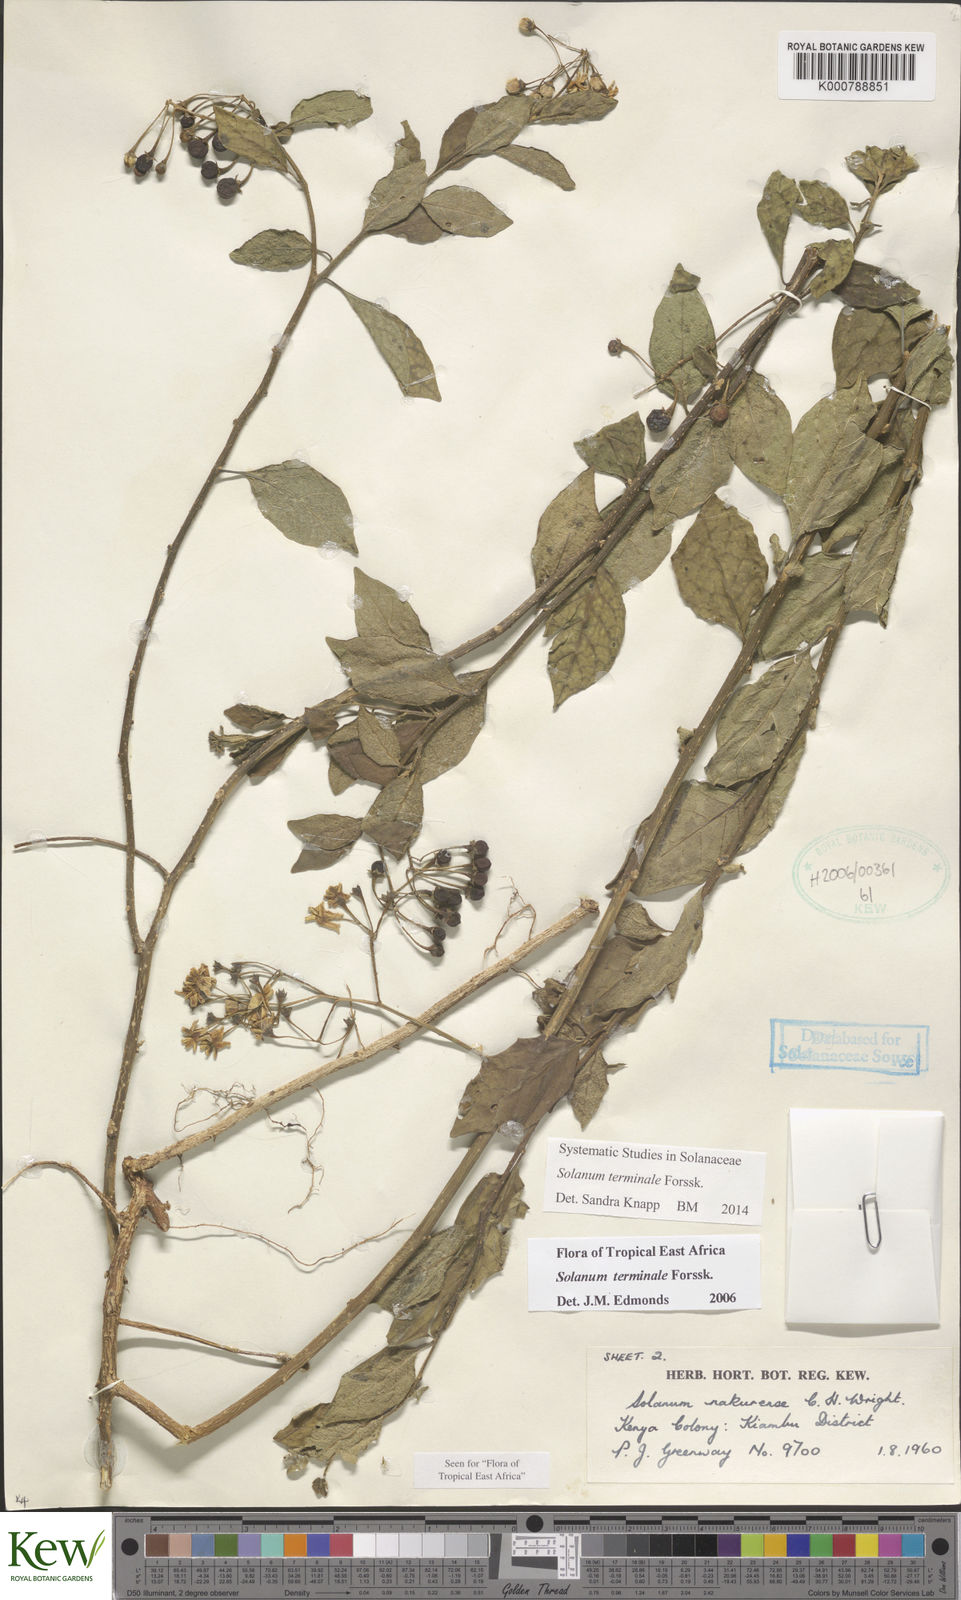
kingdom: Plantae
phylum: Tracheophyta
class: Magnoliopsida
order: Solanales
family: Solanaceae
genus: Solanum
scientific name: Solanum terminale
